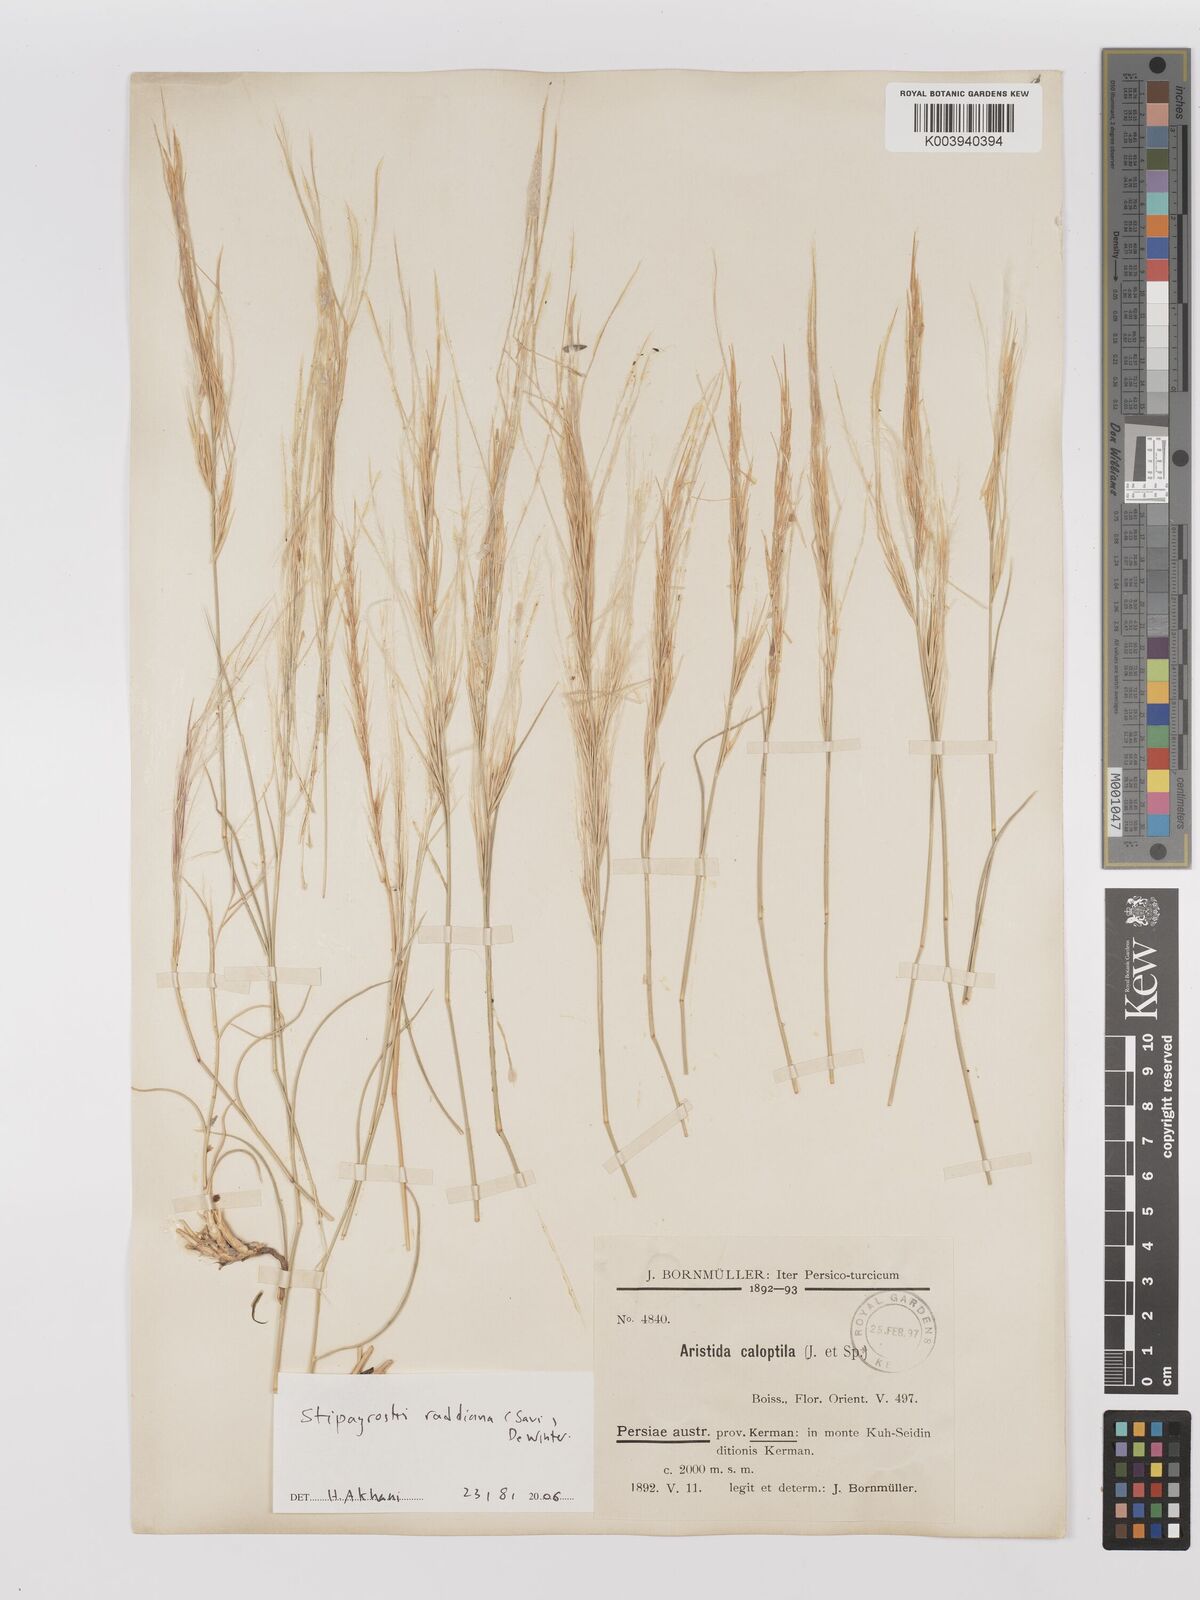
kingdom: Plantae
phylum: Tracheophyta
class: Liliopsida
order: Poales
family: Poaceae
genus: Stipagrostis
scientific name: Stipagrostis paradisea
